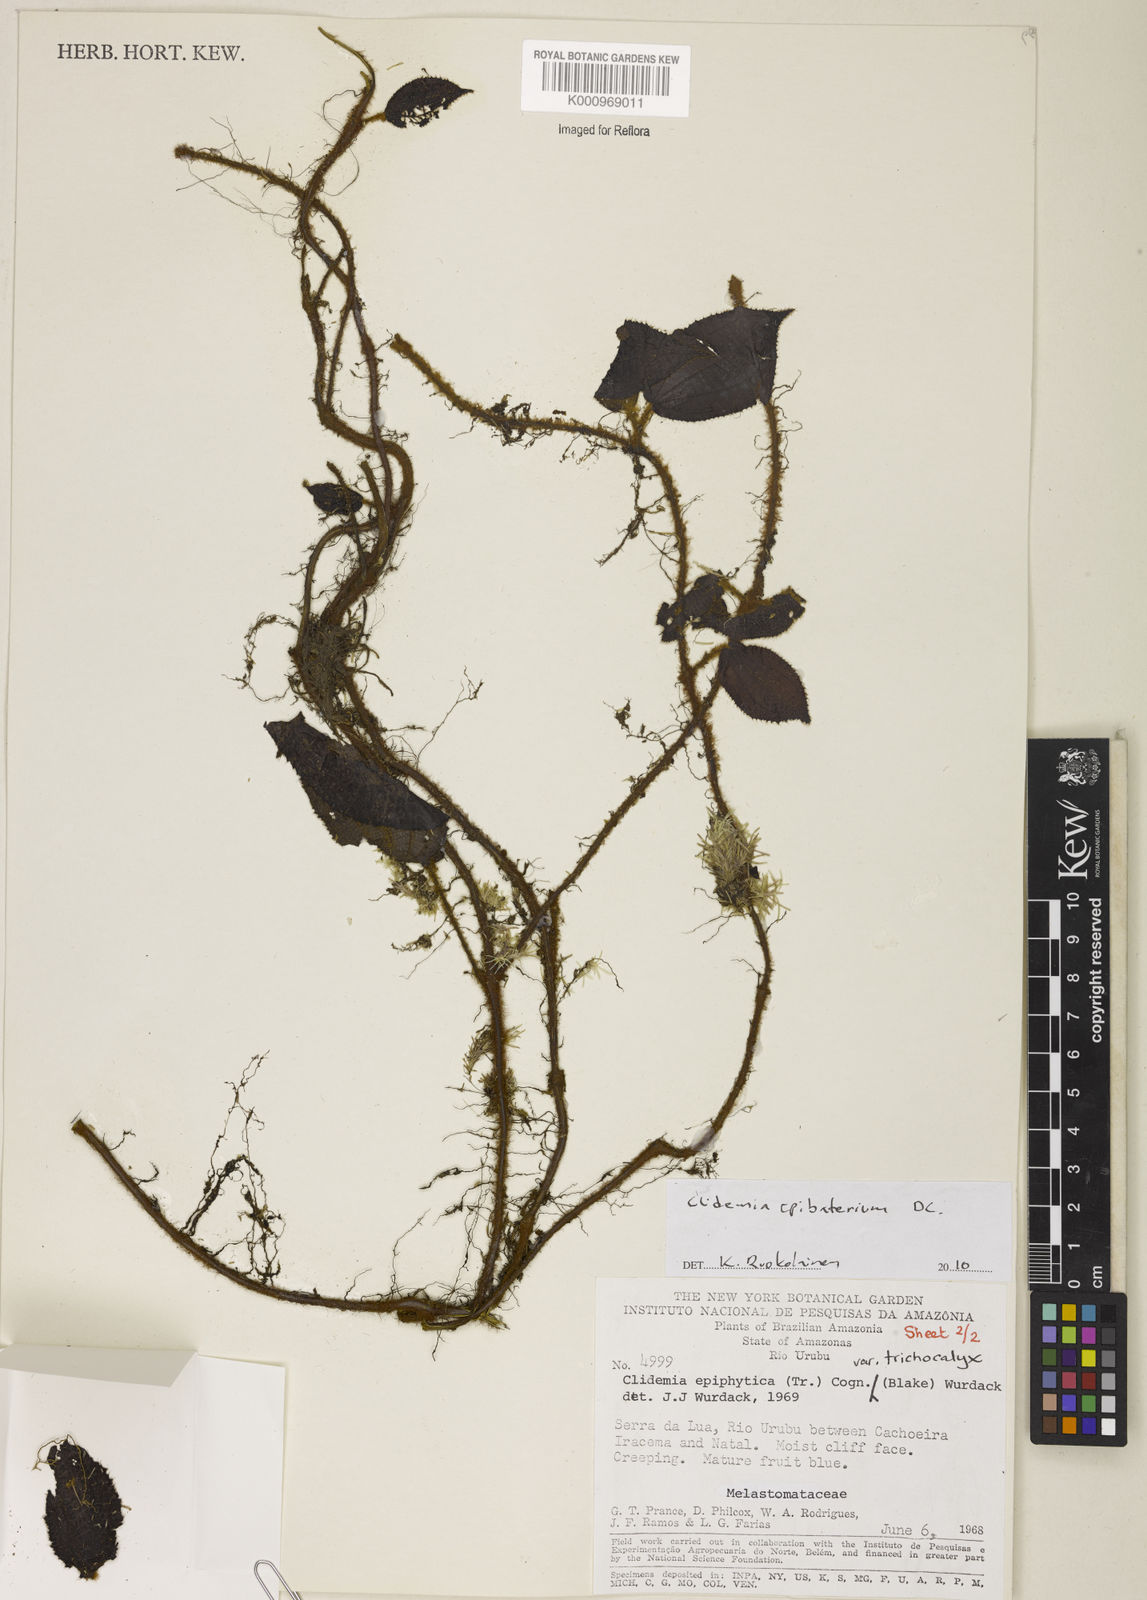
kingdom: Plantae
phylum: Tracheophyta
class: Magnoliopsida
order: Myrtales
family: Melastomataceae
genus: Miconia
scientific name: Miconia epibaterium
